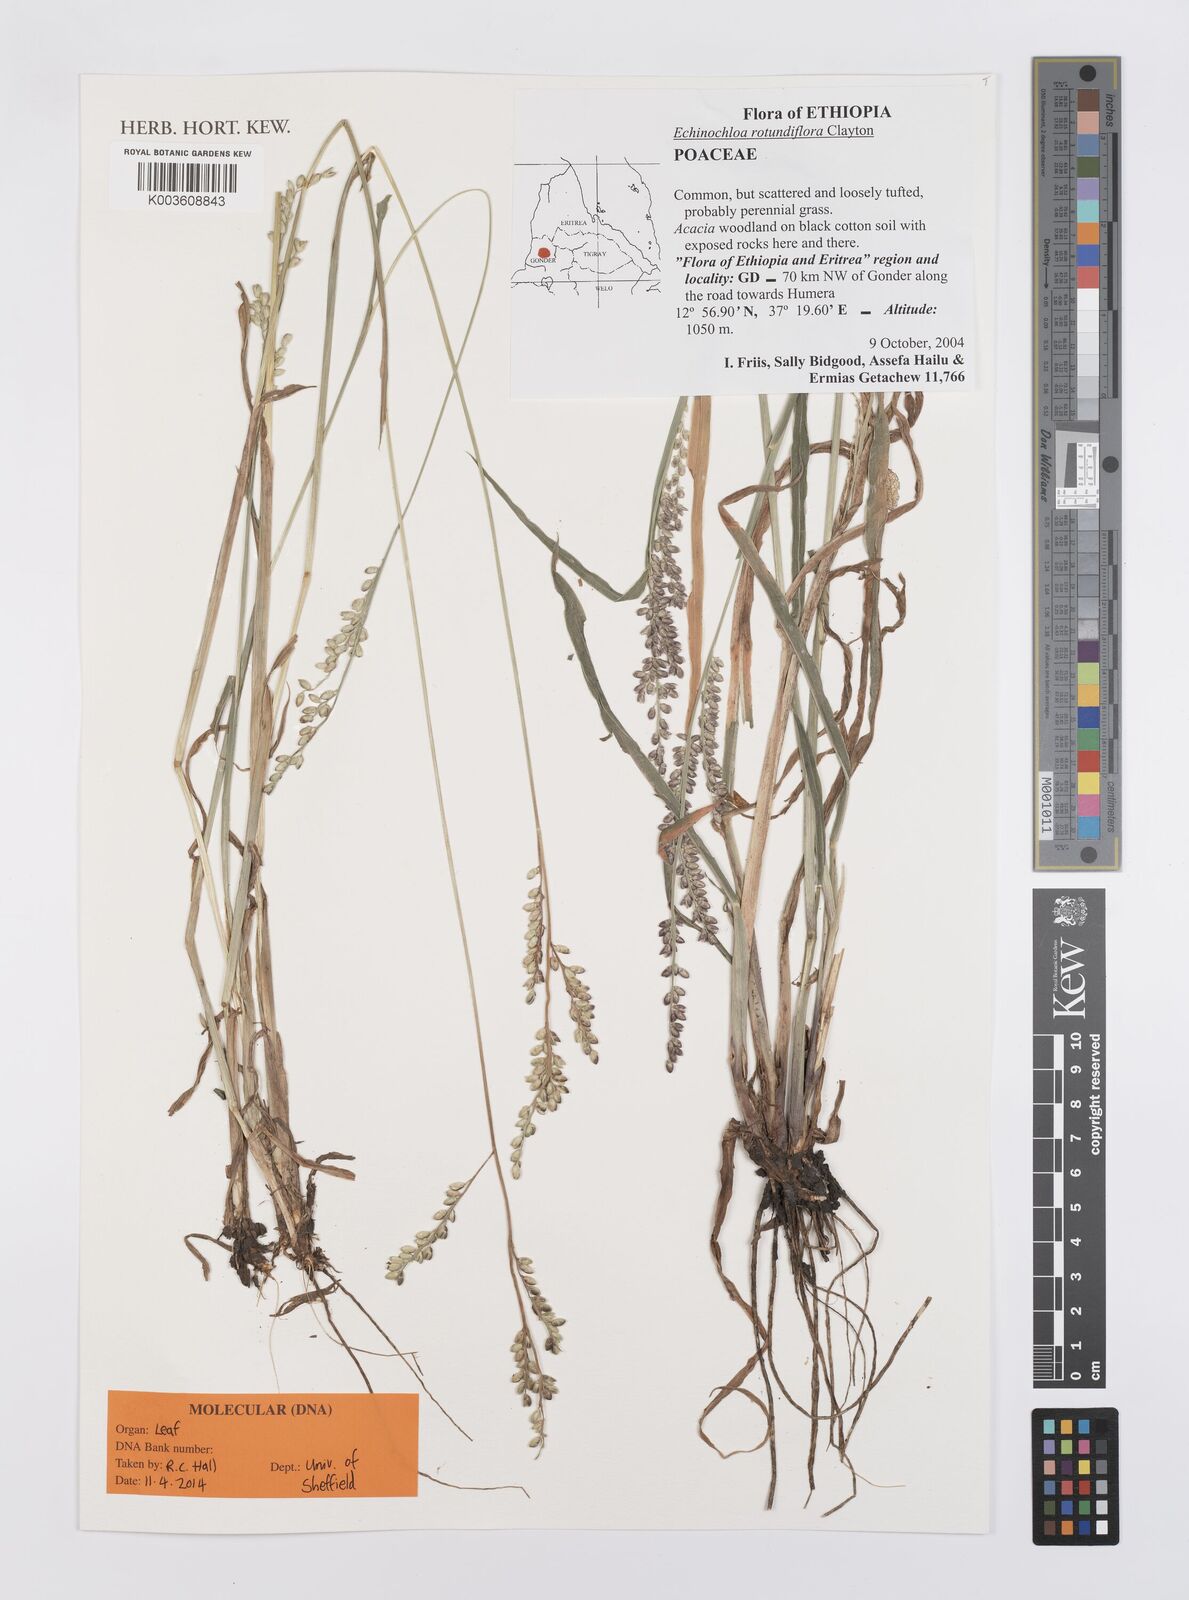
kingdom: Plantae
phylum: Tracheophyta
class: Liliopsida
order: Poales
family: Poaceae
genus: Echinochloa
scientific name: Echinochloa rotundiflora
